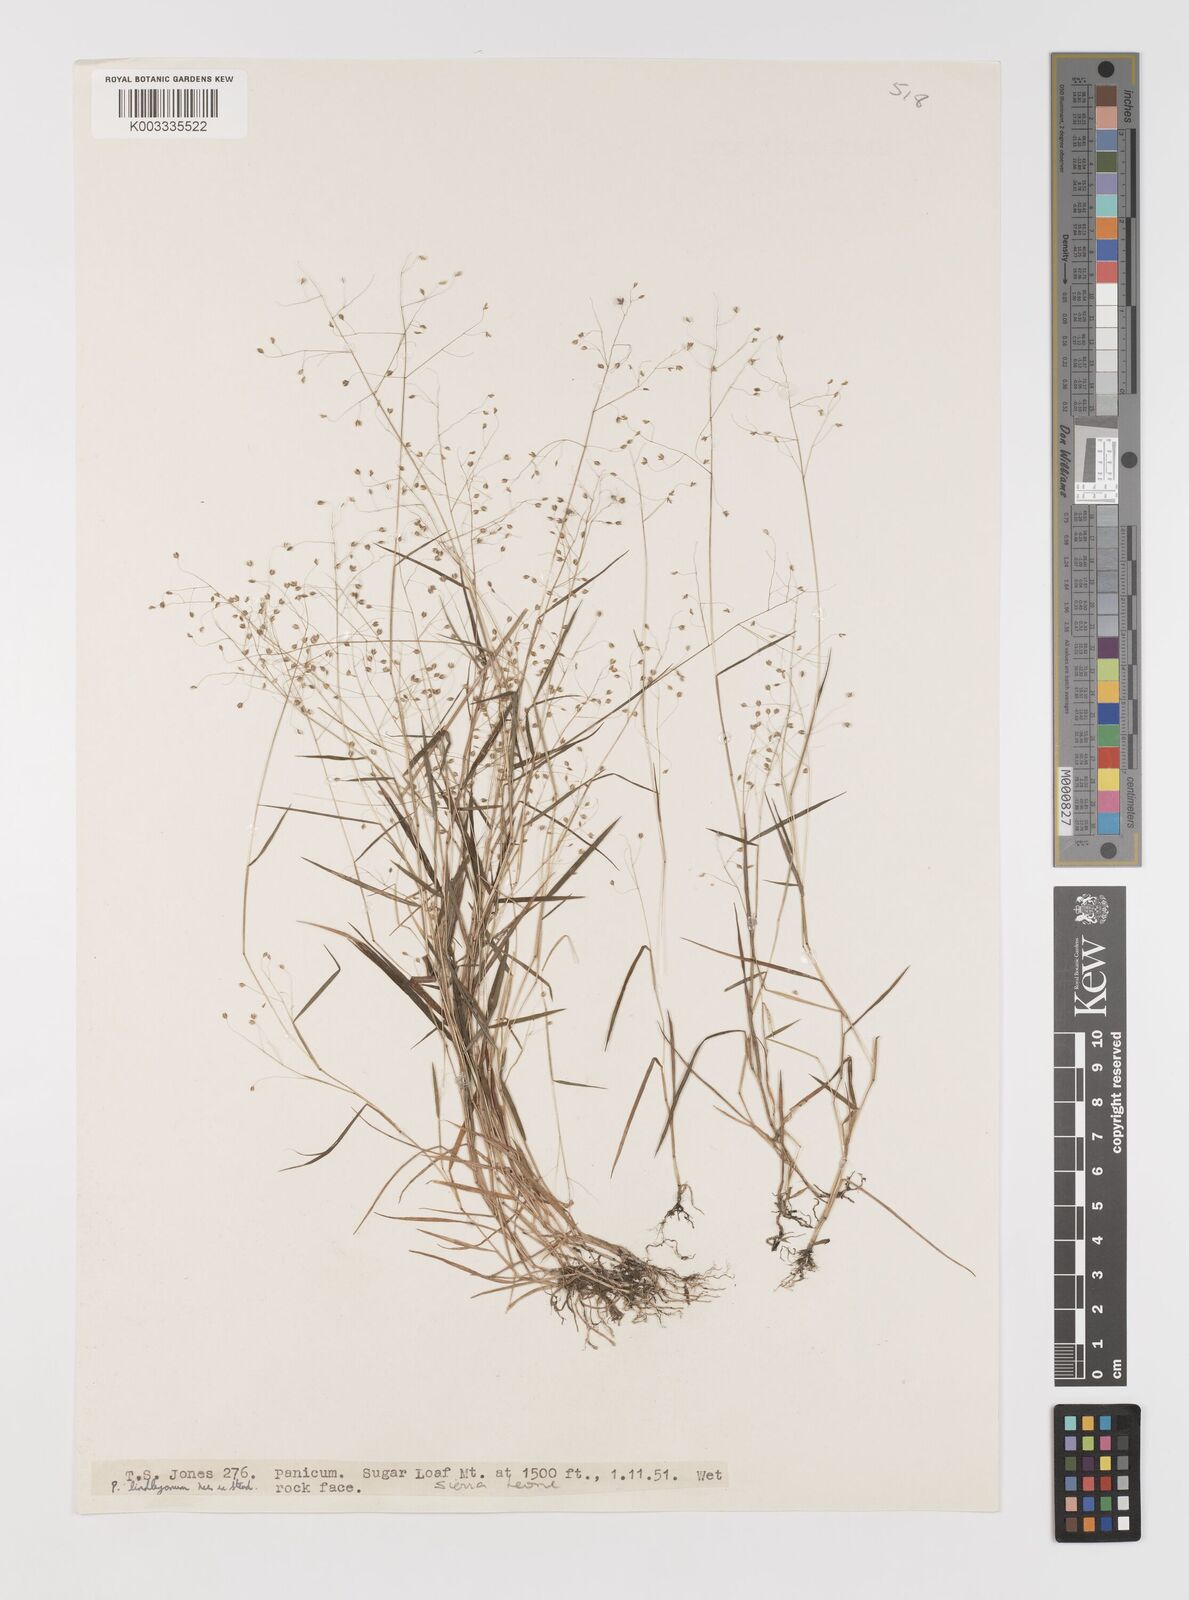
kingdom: Plantae
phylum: Tracheophyta
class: Liliopsida
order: Poales
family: Poaceae
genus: Trichanthecium
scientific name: Trichanthecium tenellum
